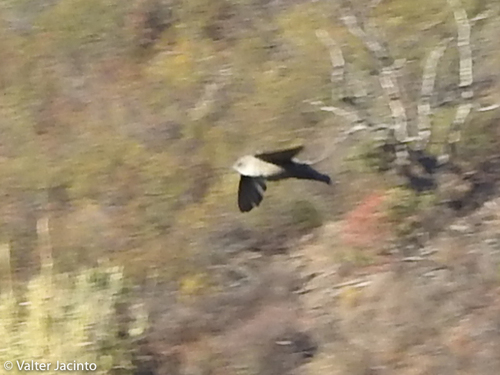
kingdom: Animalia
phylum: Chordata
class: Aves
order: Passeriformes
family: Hirundinidae
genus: Ptyonoprogne
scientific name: Ptyonoprogne rupestris
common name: Eurasian crag martin
